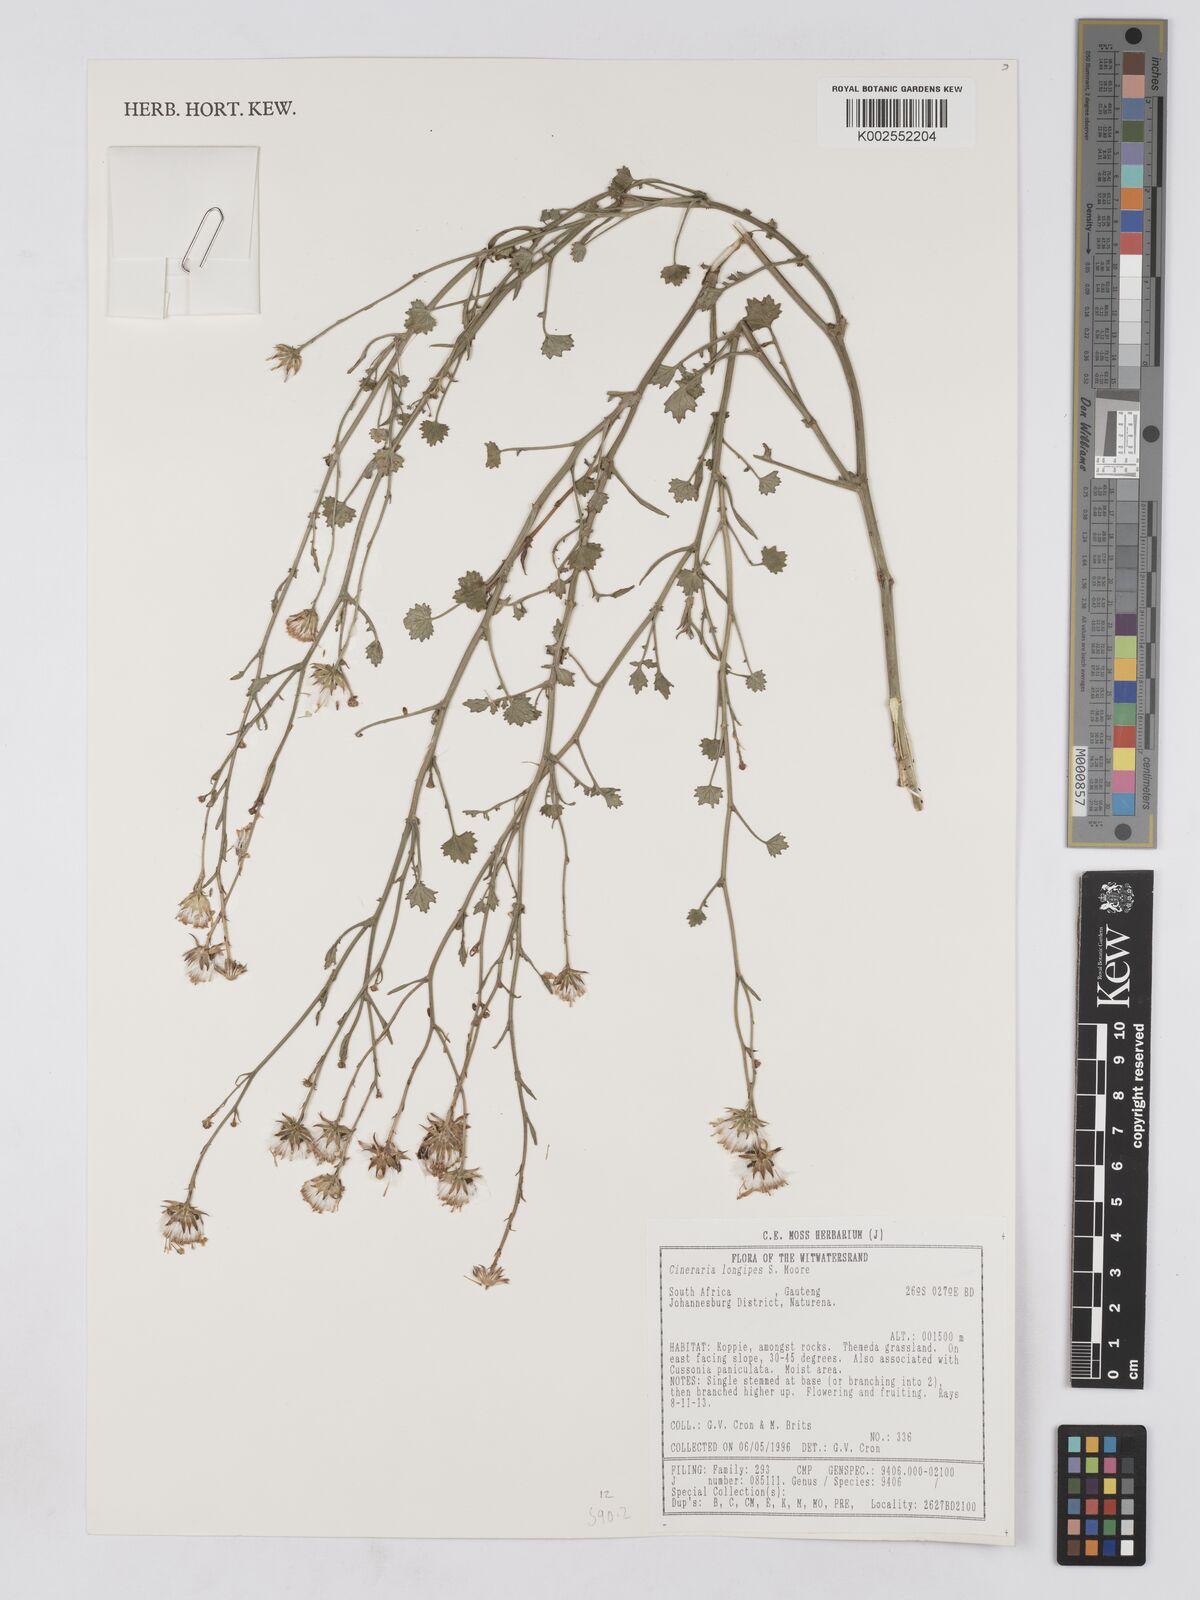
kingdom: Plantae
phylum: Tracheophyta
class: Magnoliopsida
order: Asterales
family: Asteraceae
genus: Cineraria
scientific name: Cineraria longipes
